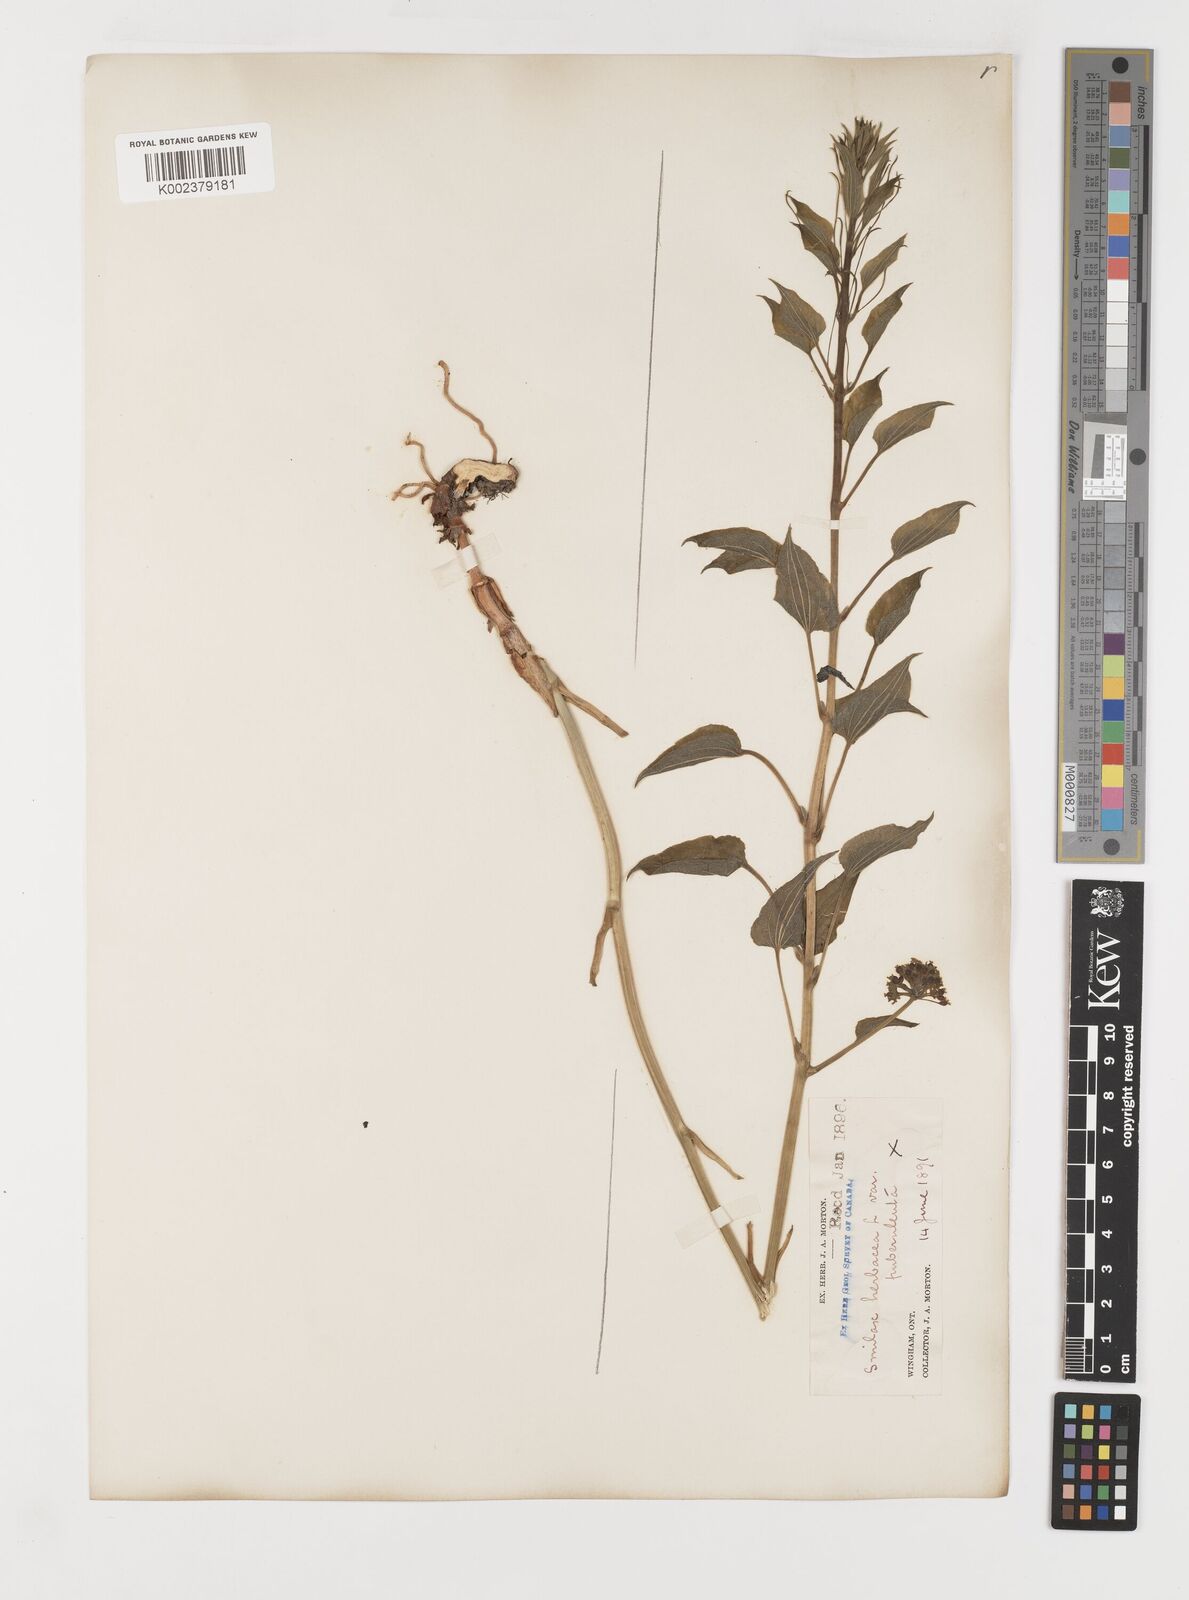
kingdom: Plantae
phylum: Tracheophyta
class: Liliopsida
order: Liliales
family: Smilacaceae
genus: Smilax
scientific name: Smilax herbacea
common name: Jacob's-ladder
